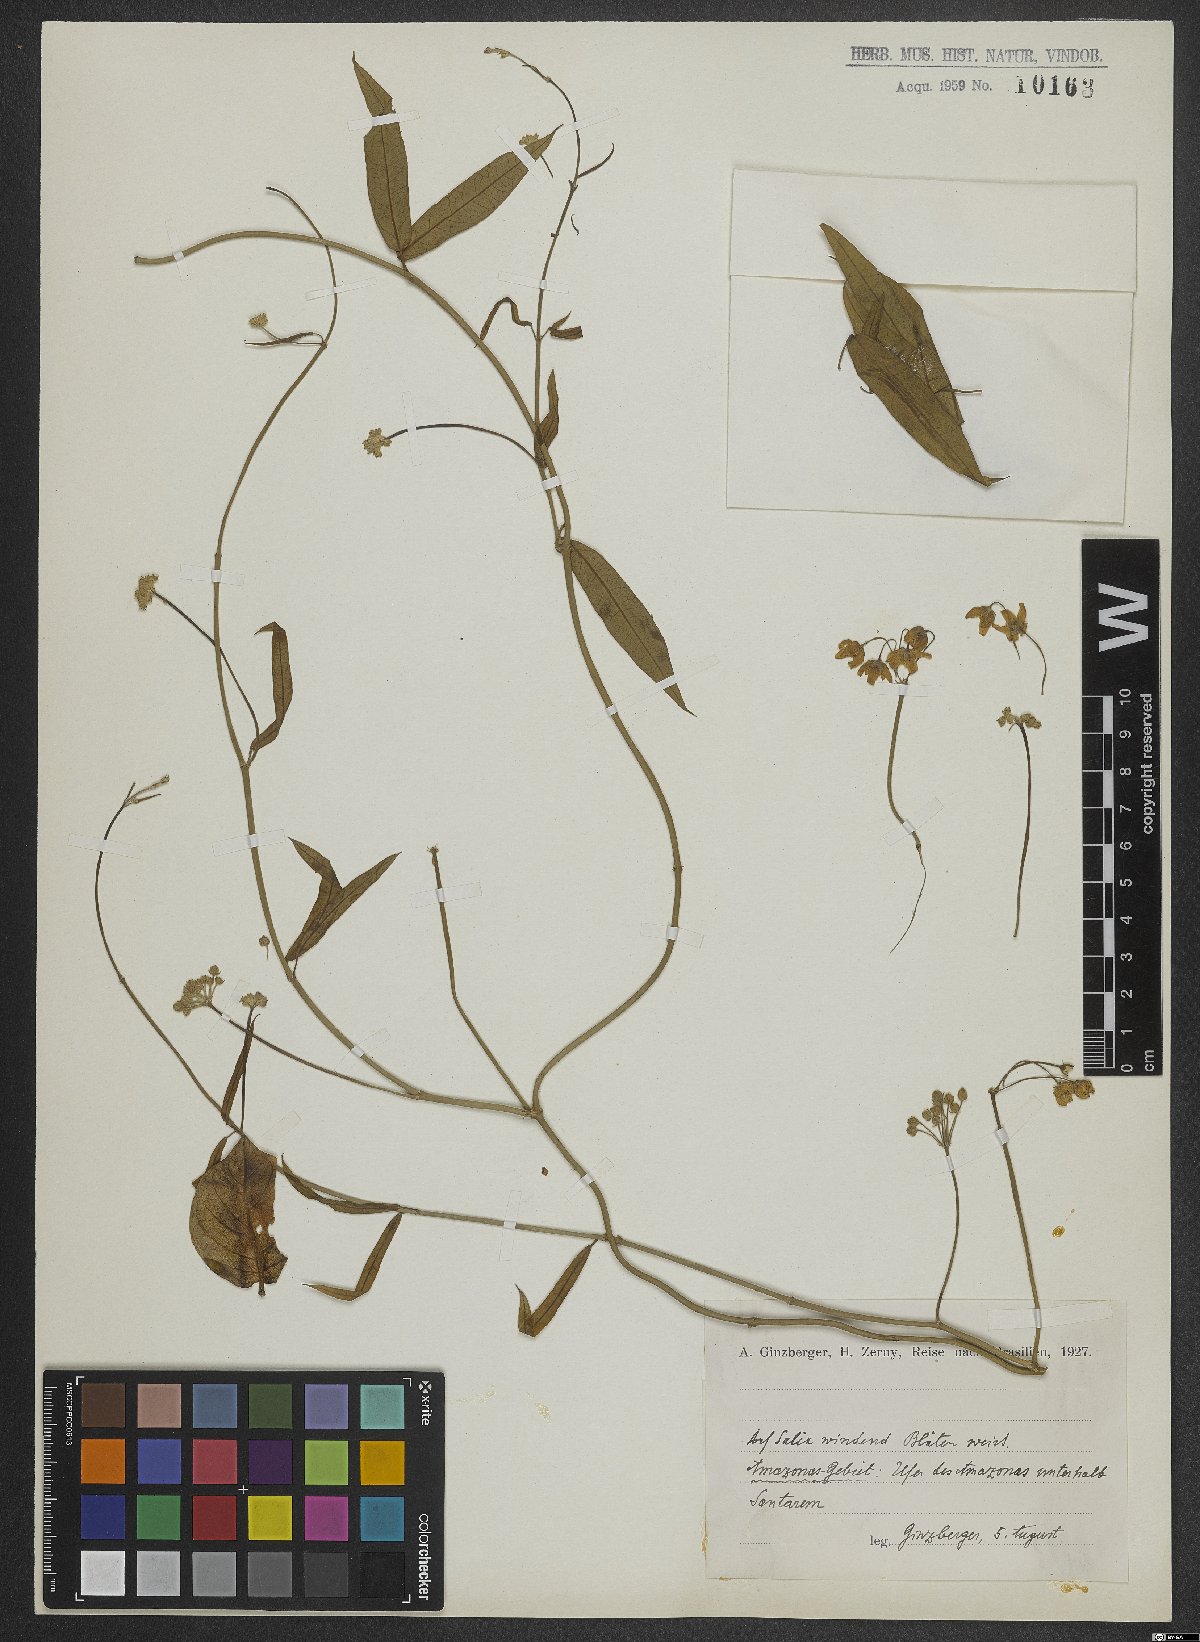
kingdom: Plantae
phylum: Tracheophyta
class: Magnoliopsida
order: Dipsacales
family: Valerianaceae
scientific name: Valerianaceae
